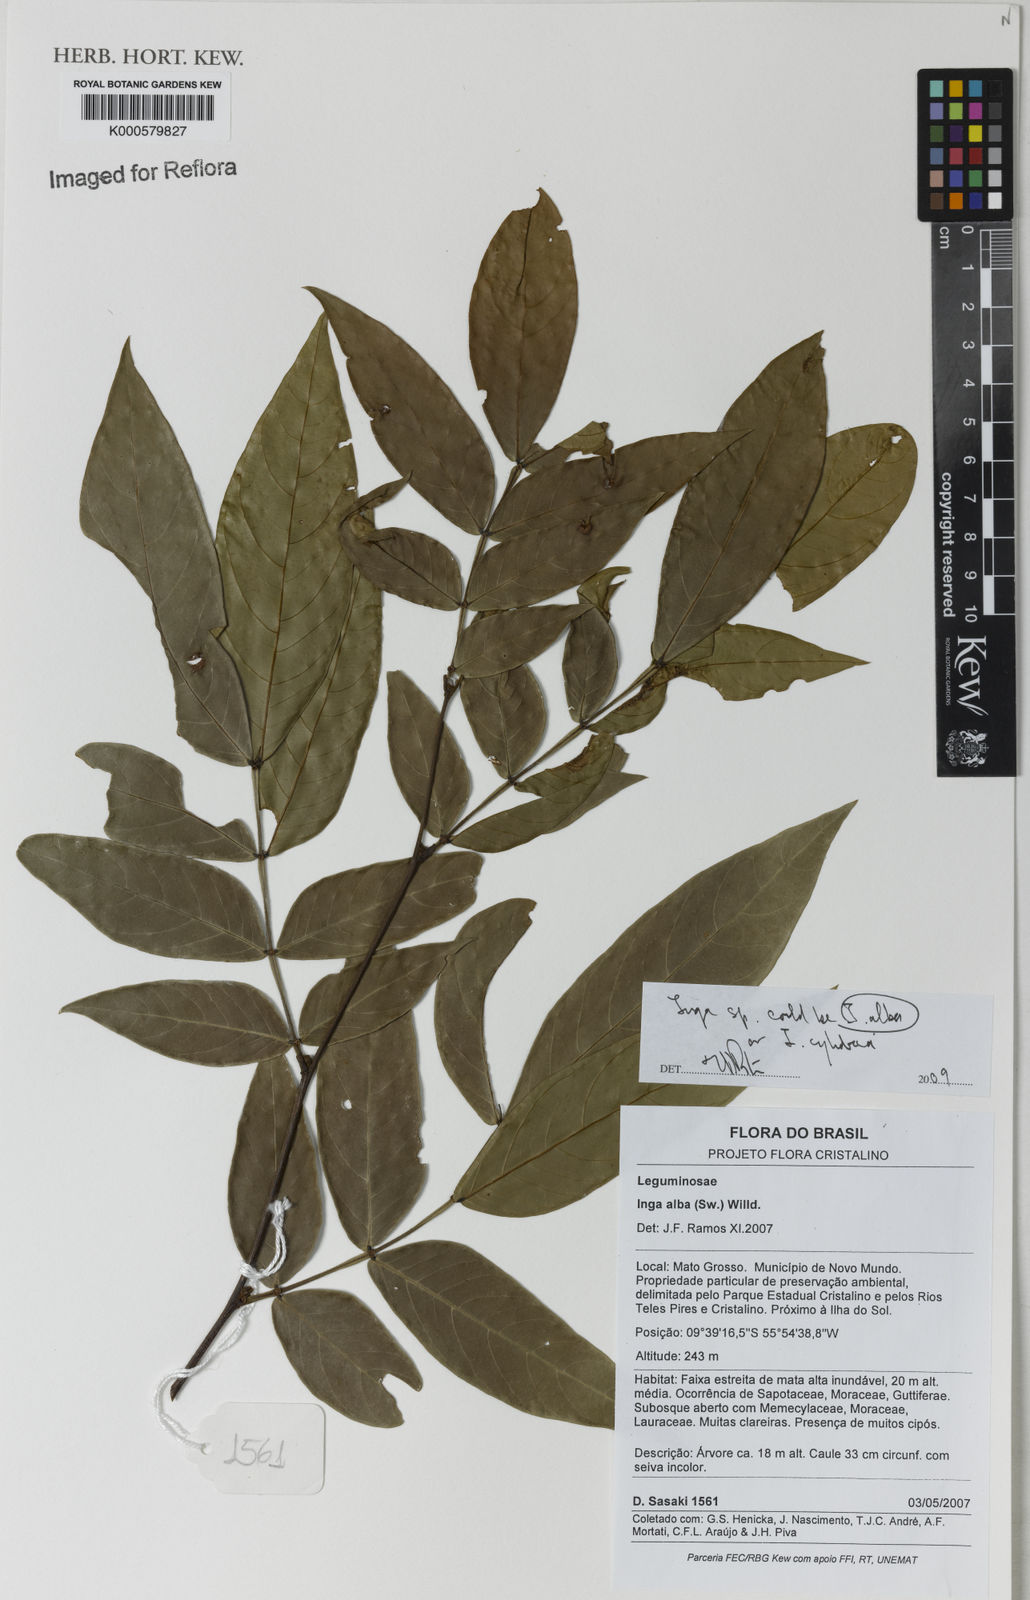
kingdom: Plantae
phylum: Tracheophyta
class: Magnoliopsida
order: Fabales
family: Fabaceae
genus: Inga
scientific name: Inga alba
